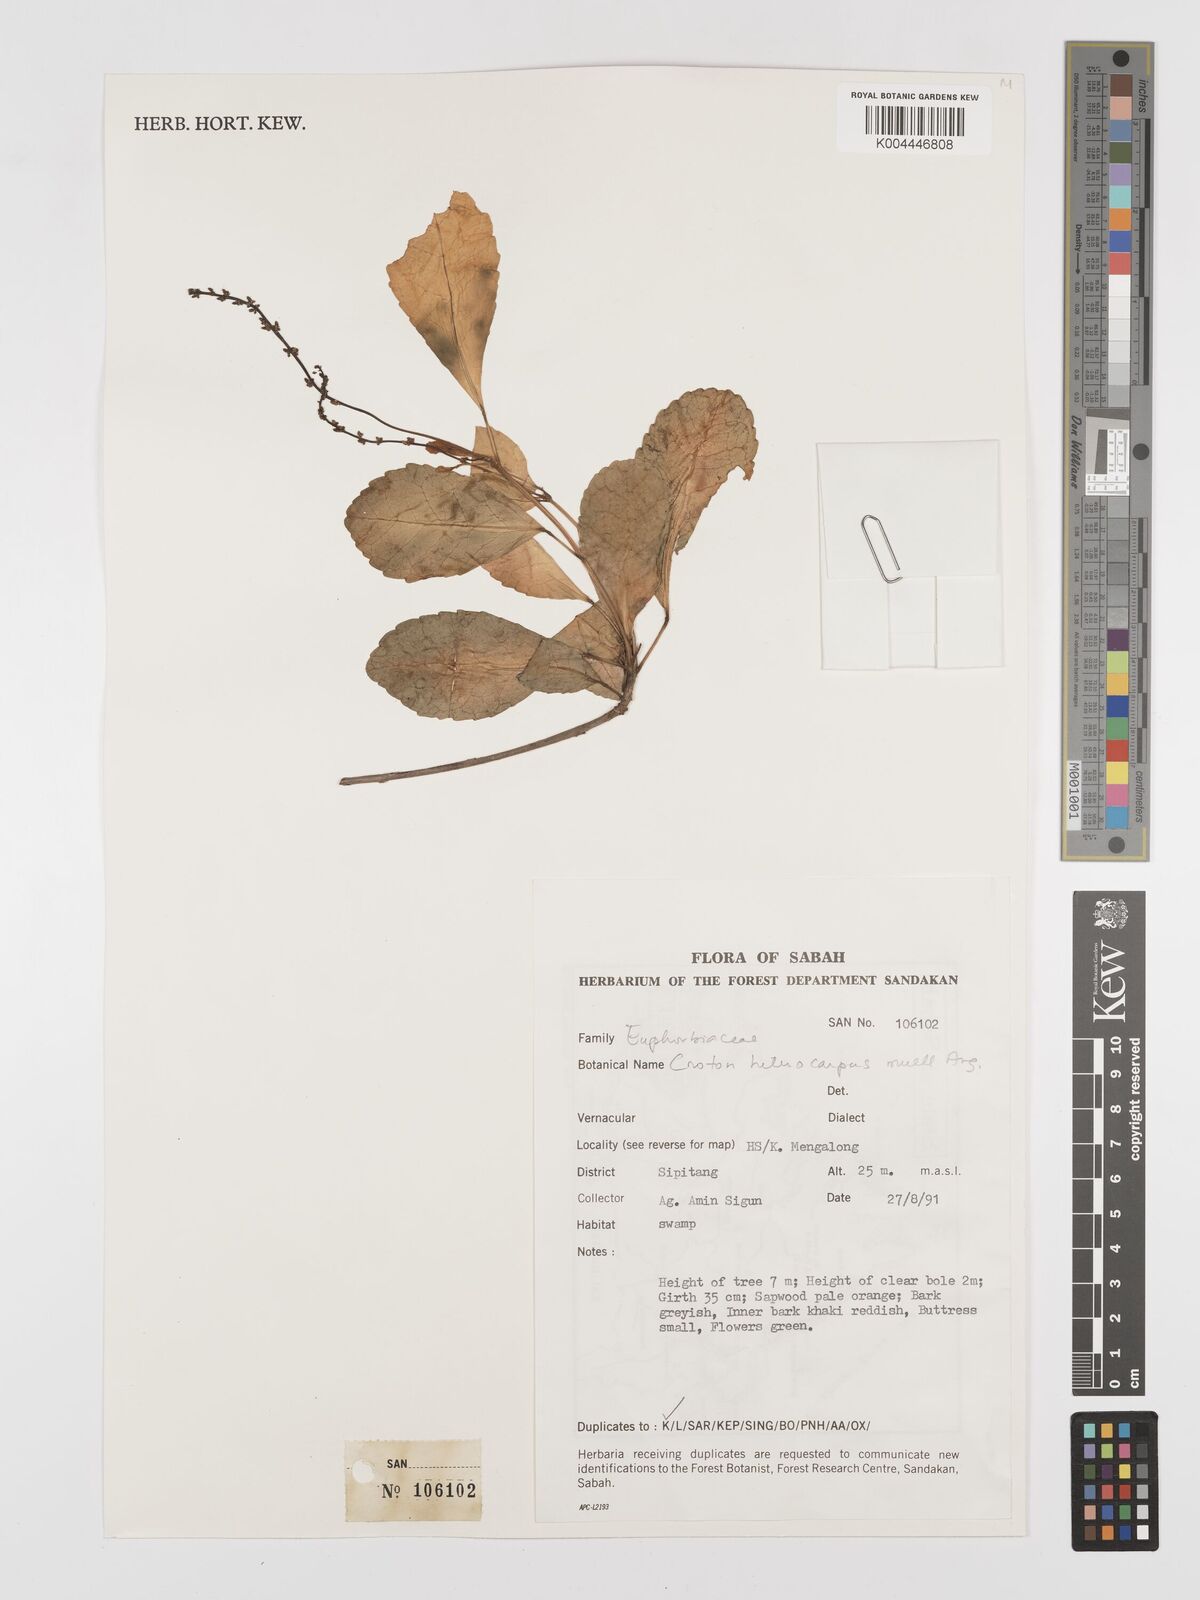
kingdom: Plantae
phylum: Tracheophyta
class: Magnoliopsida
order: Malpighiales
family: Euphorbiaceae
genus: Croton
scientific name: Croton heterocarpus
